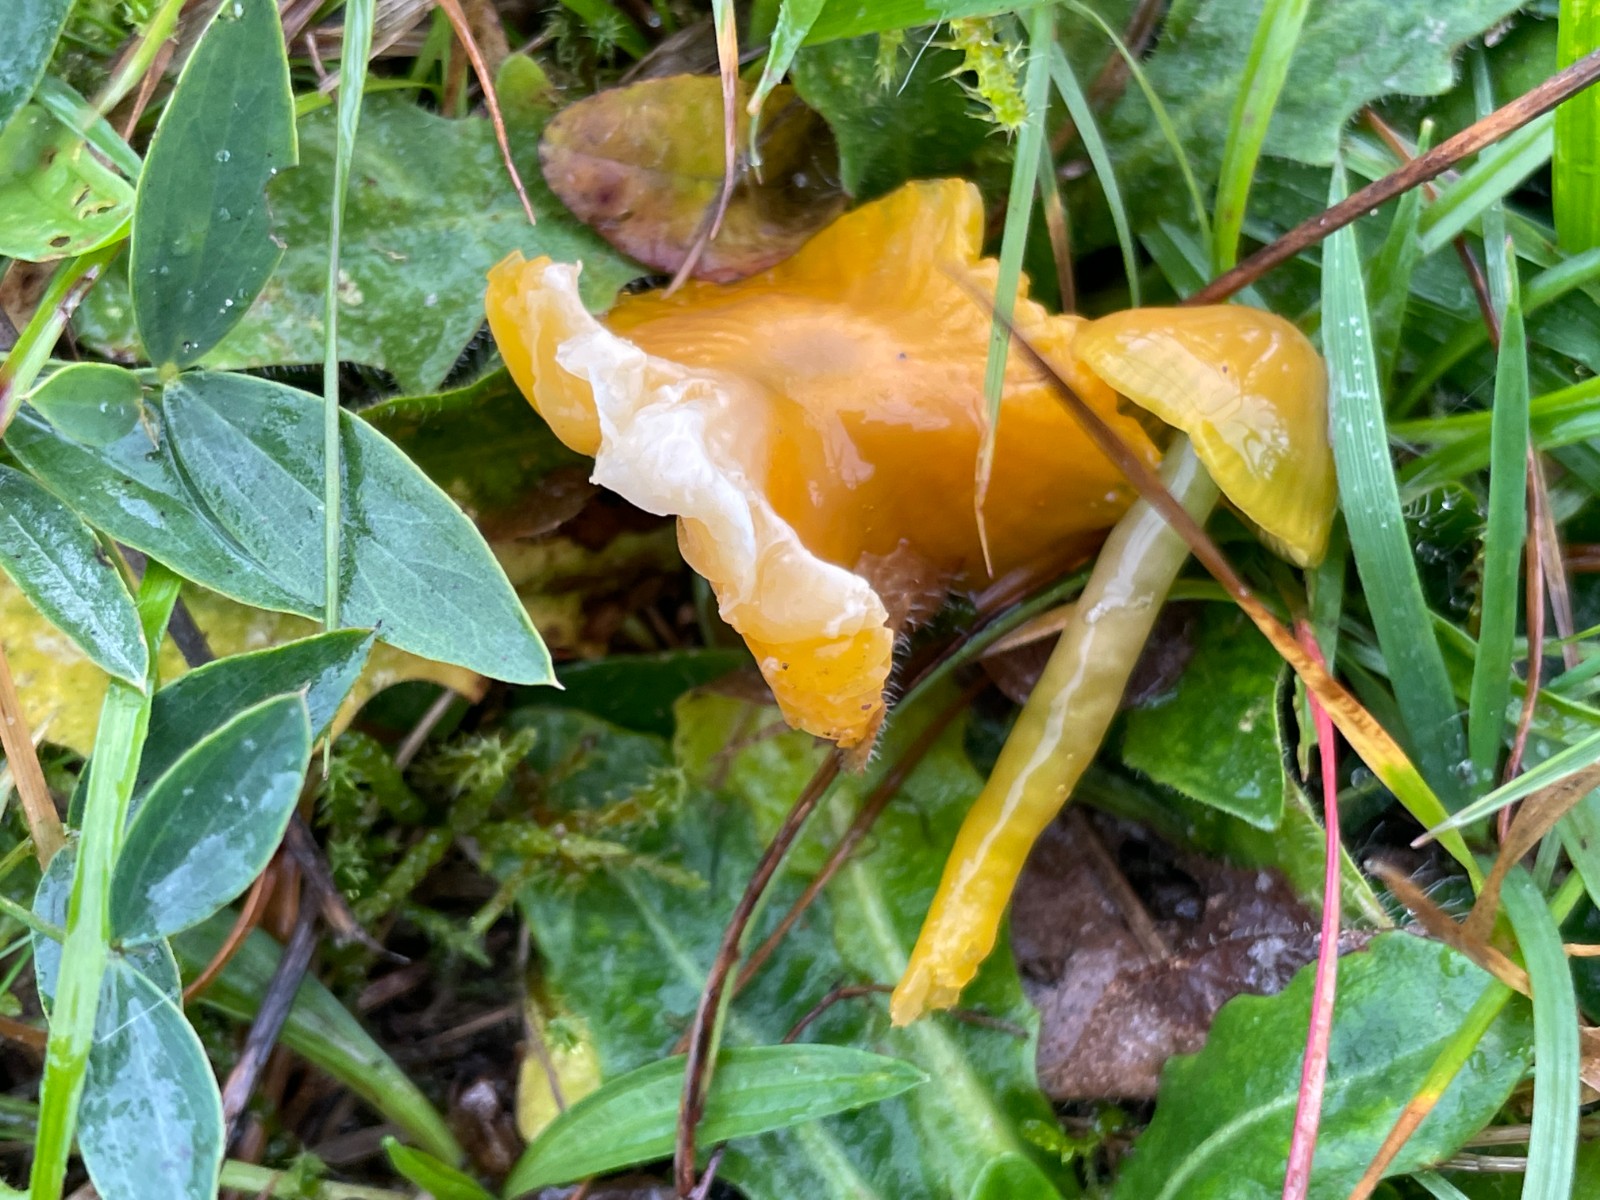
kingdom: Fungi
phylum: Basidiomycota
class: Agaricomycetes
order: Agaricales
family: Hygrophoraceae
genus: Gliophorus
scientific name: Gliophorus psittacinus
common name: papegøje-vokshat
